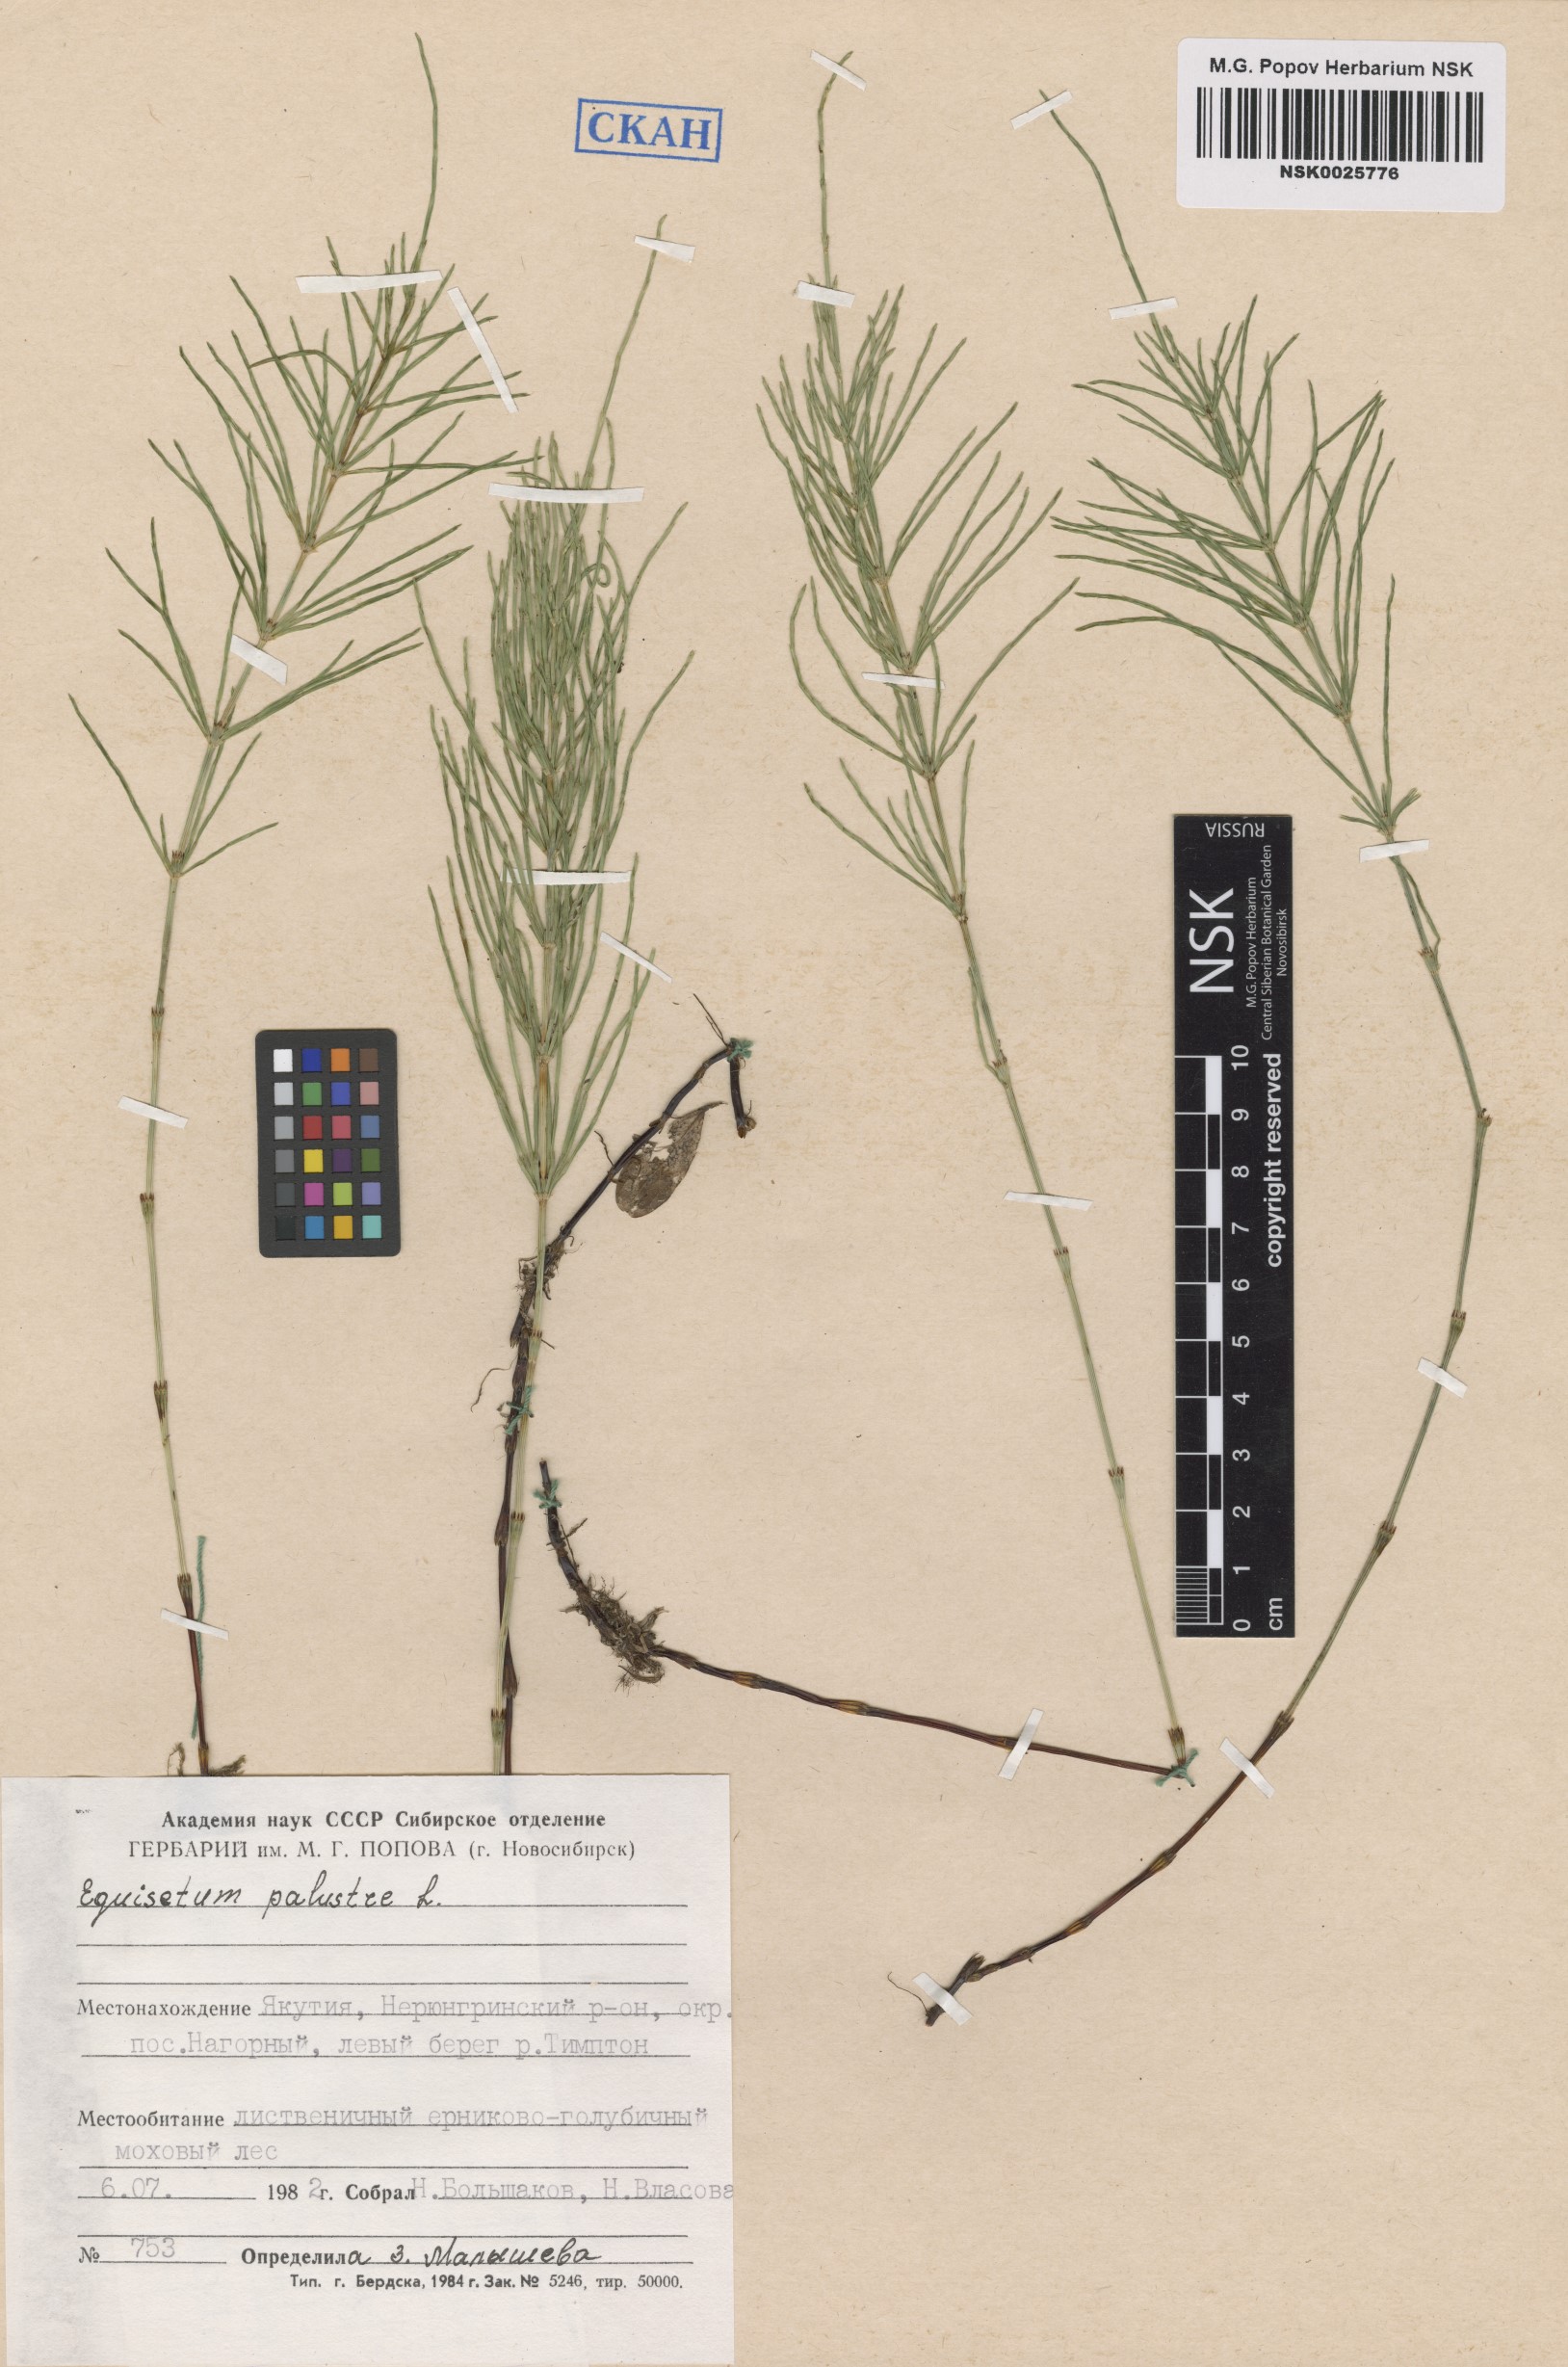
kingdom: Plantae
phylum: Tracheophyta
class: Polypodiopsida
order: Equisetales
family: Equisetaceae
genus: Equisetum
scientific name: Equisetum palustre
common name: Marsh horsetail
